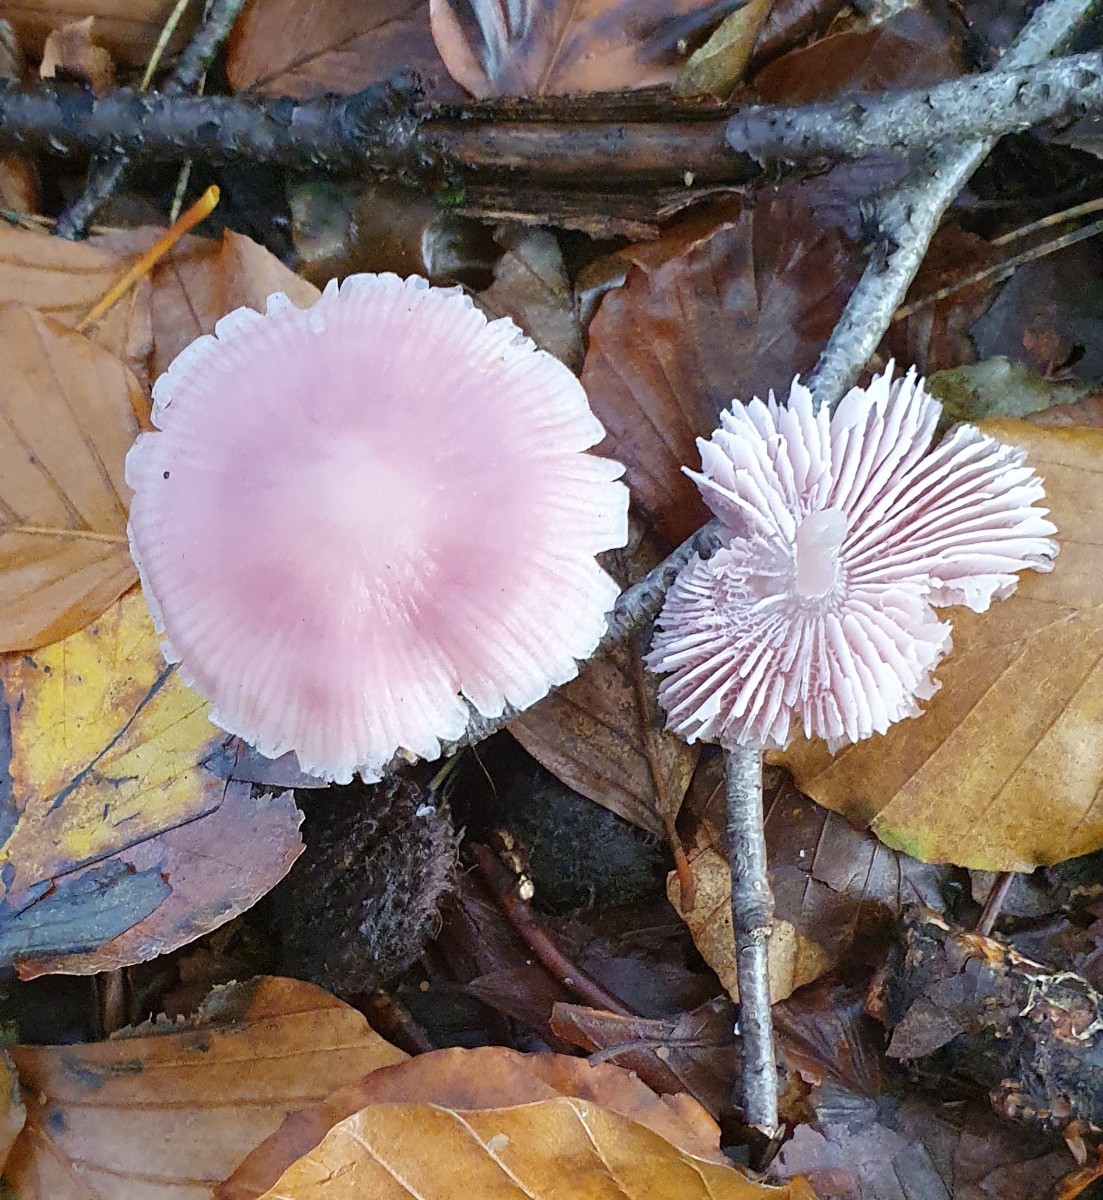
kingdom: Fungi
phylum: Basidiomycota
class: Agaricomycetes
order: Agaricales
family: Mycenaceae
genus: Mycena
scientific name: Mycena rosea
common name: rosa huesvamp
